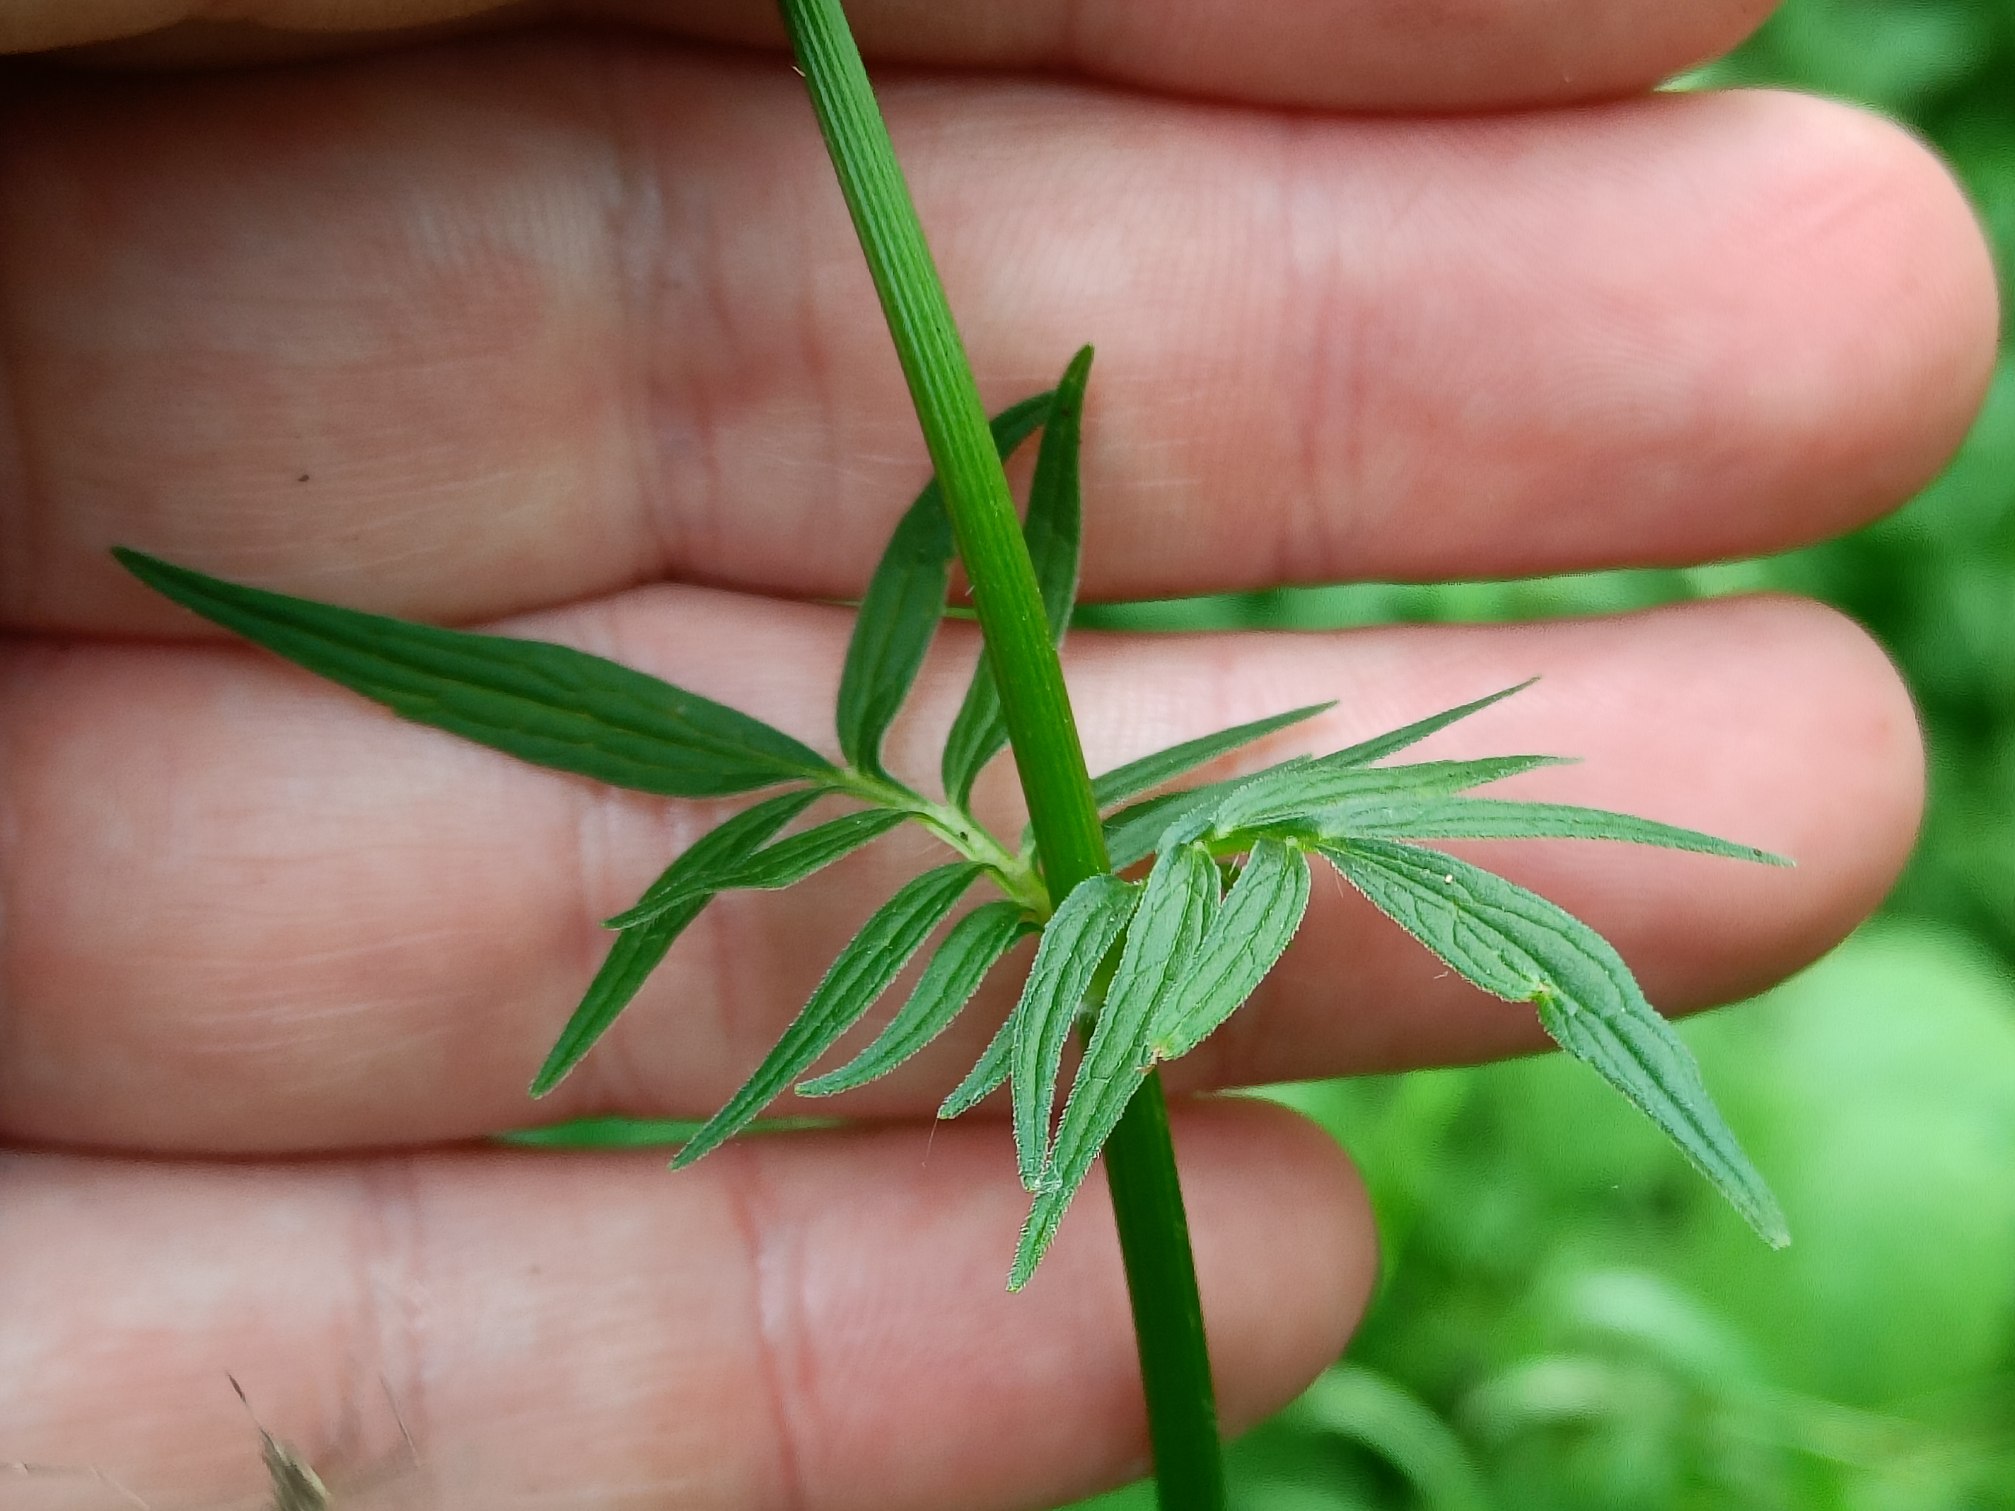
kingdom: Plantae
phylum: Tracheophyta
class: Magnoliopsida
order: Dipsacales
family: Caprifoliaceae
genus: Valeriana
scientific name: Valeriana
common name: Baldrianslægten
